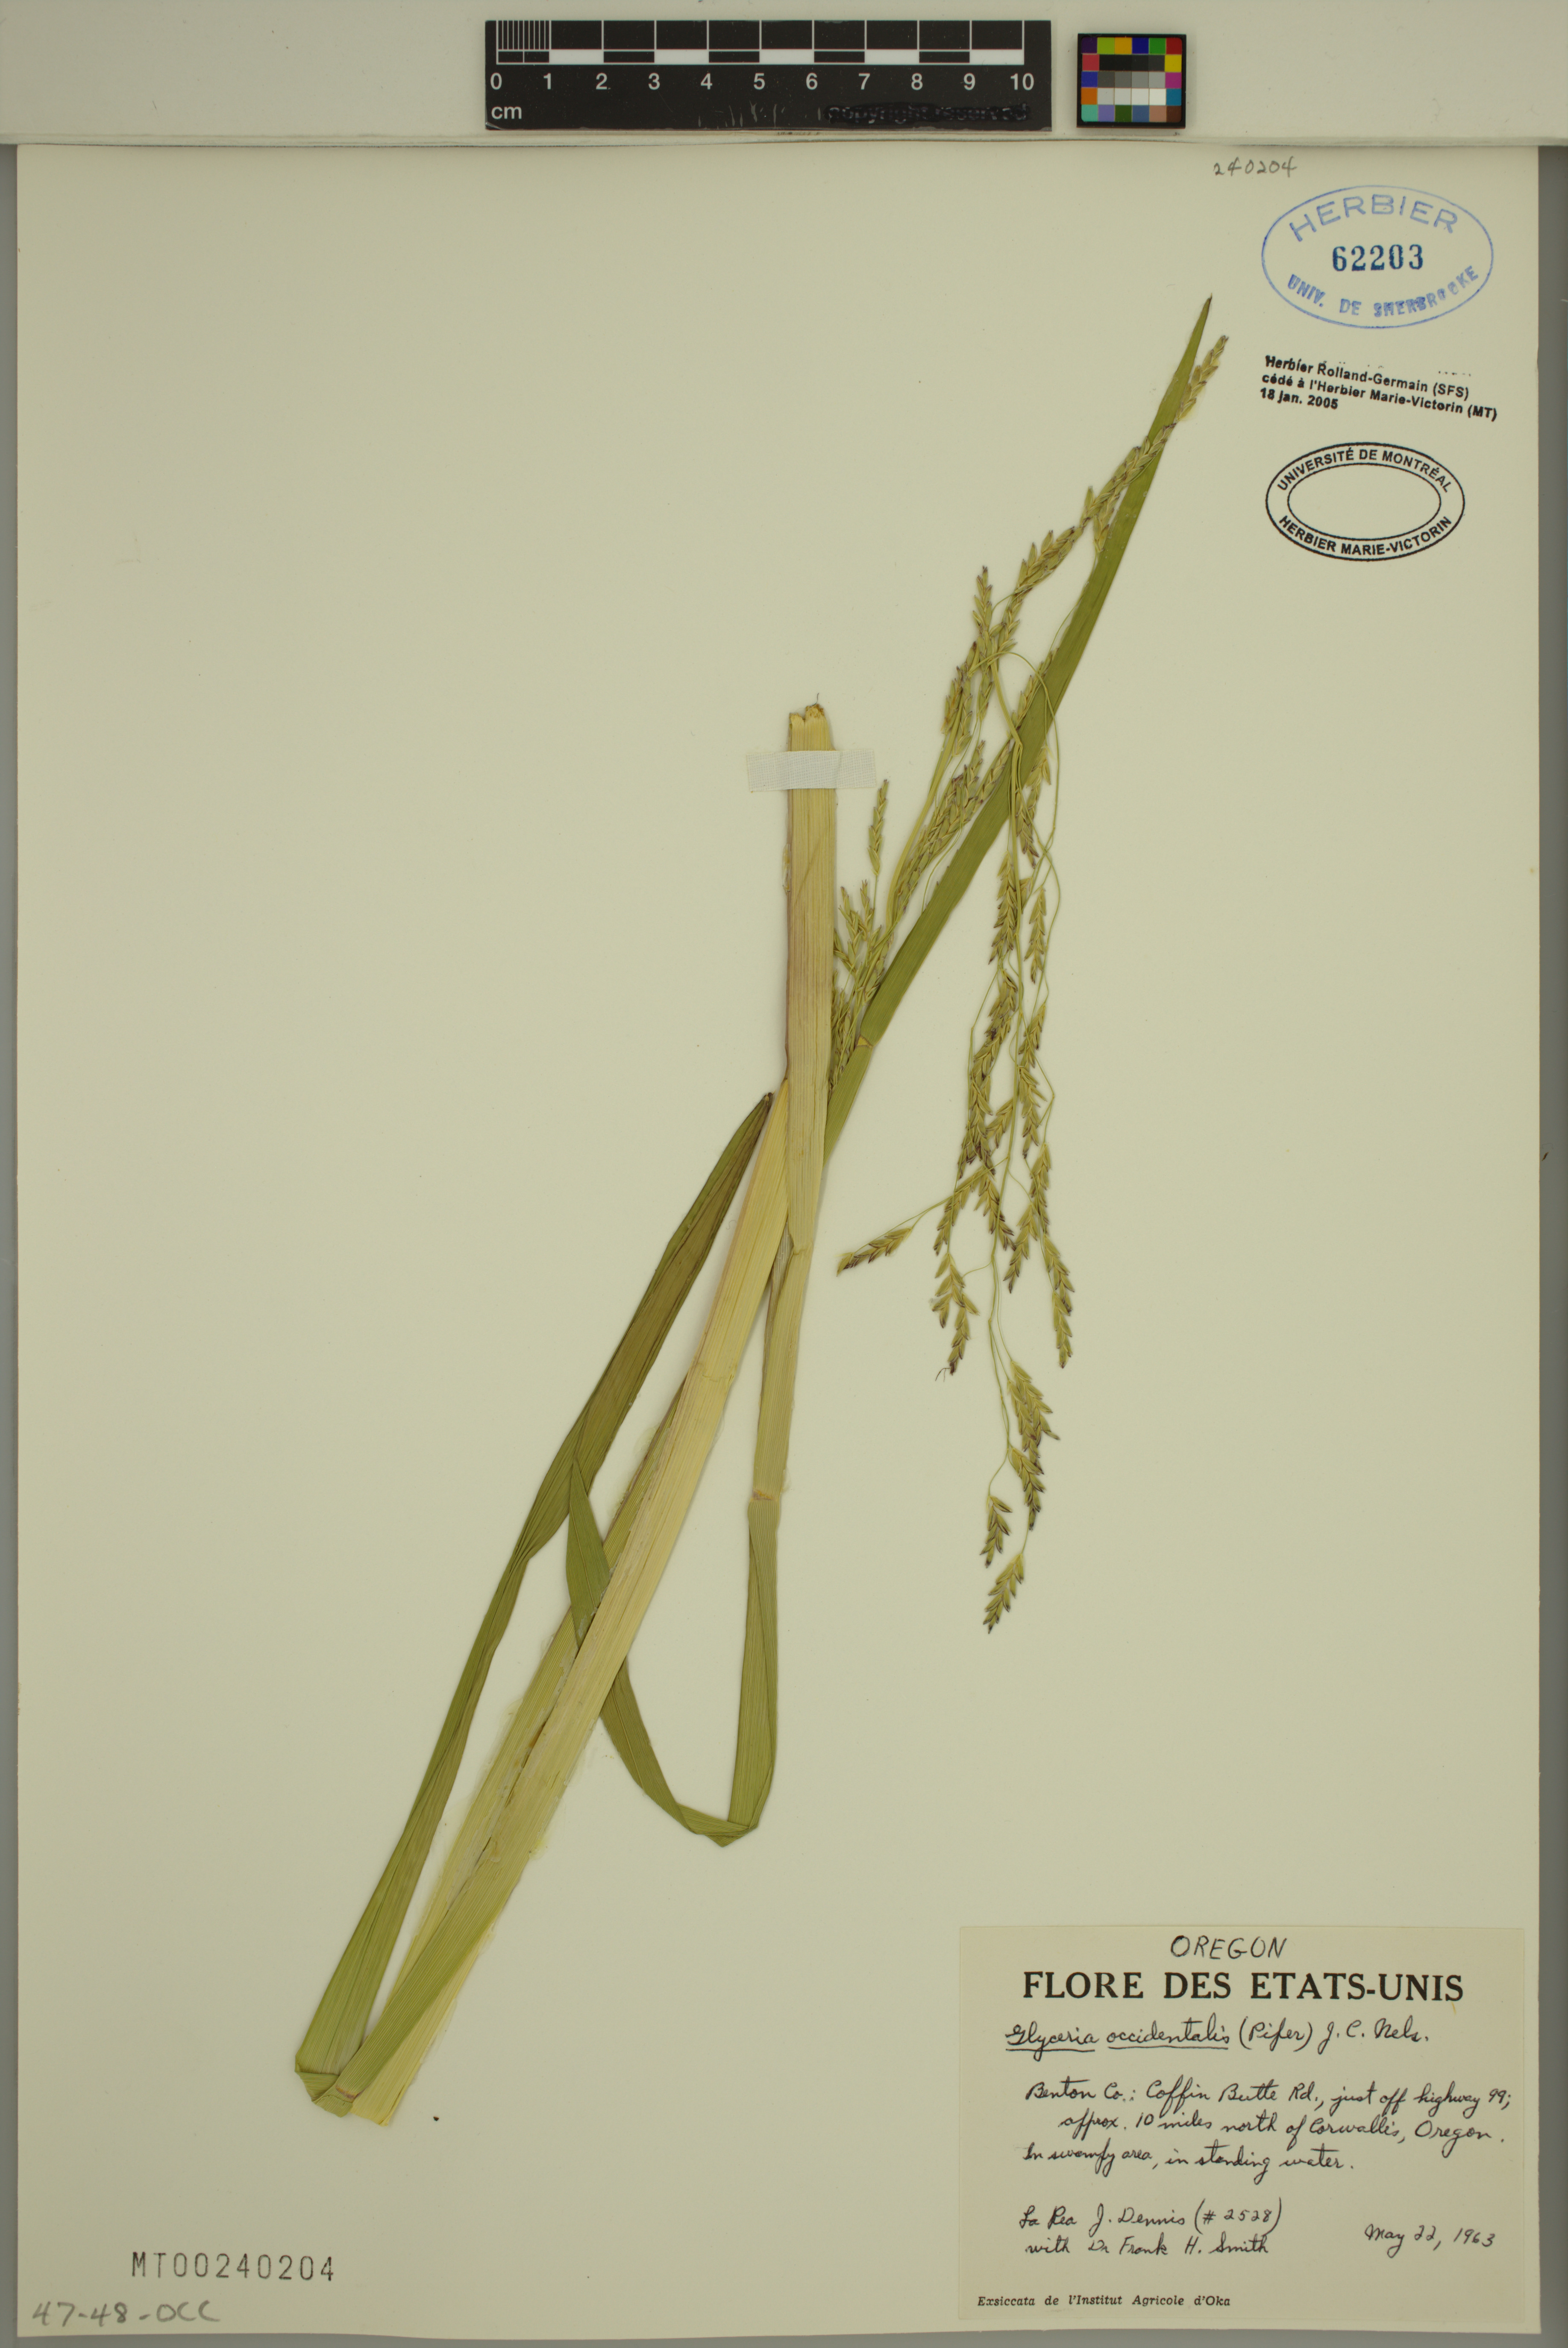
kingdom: Plantae
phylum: Tracheophyta
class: Liliopsida
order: Poales
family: Poaceae
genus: Glyceria
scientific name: Glyceria occidentalis
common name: Western manna grass
